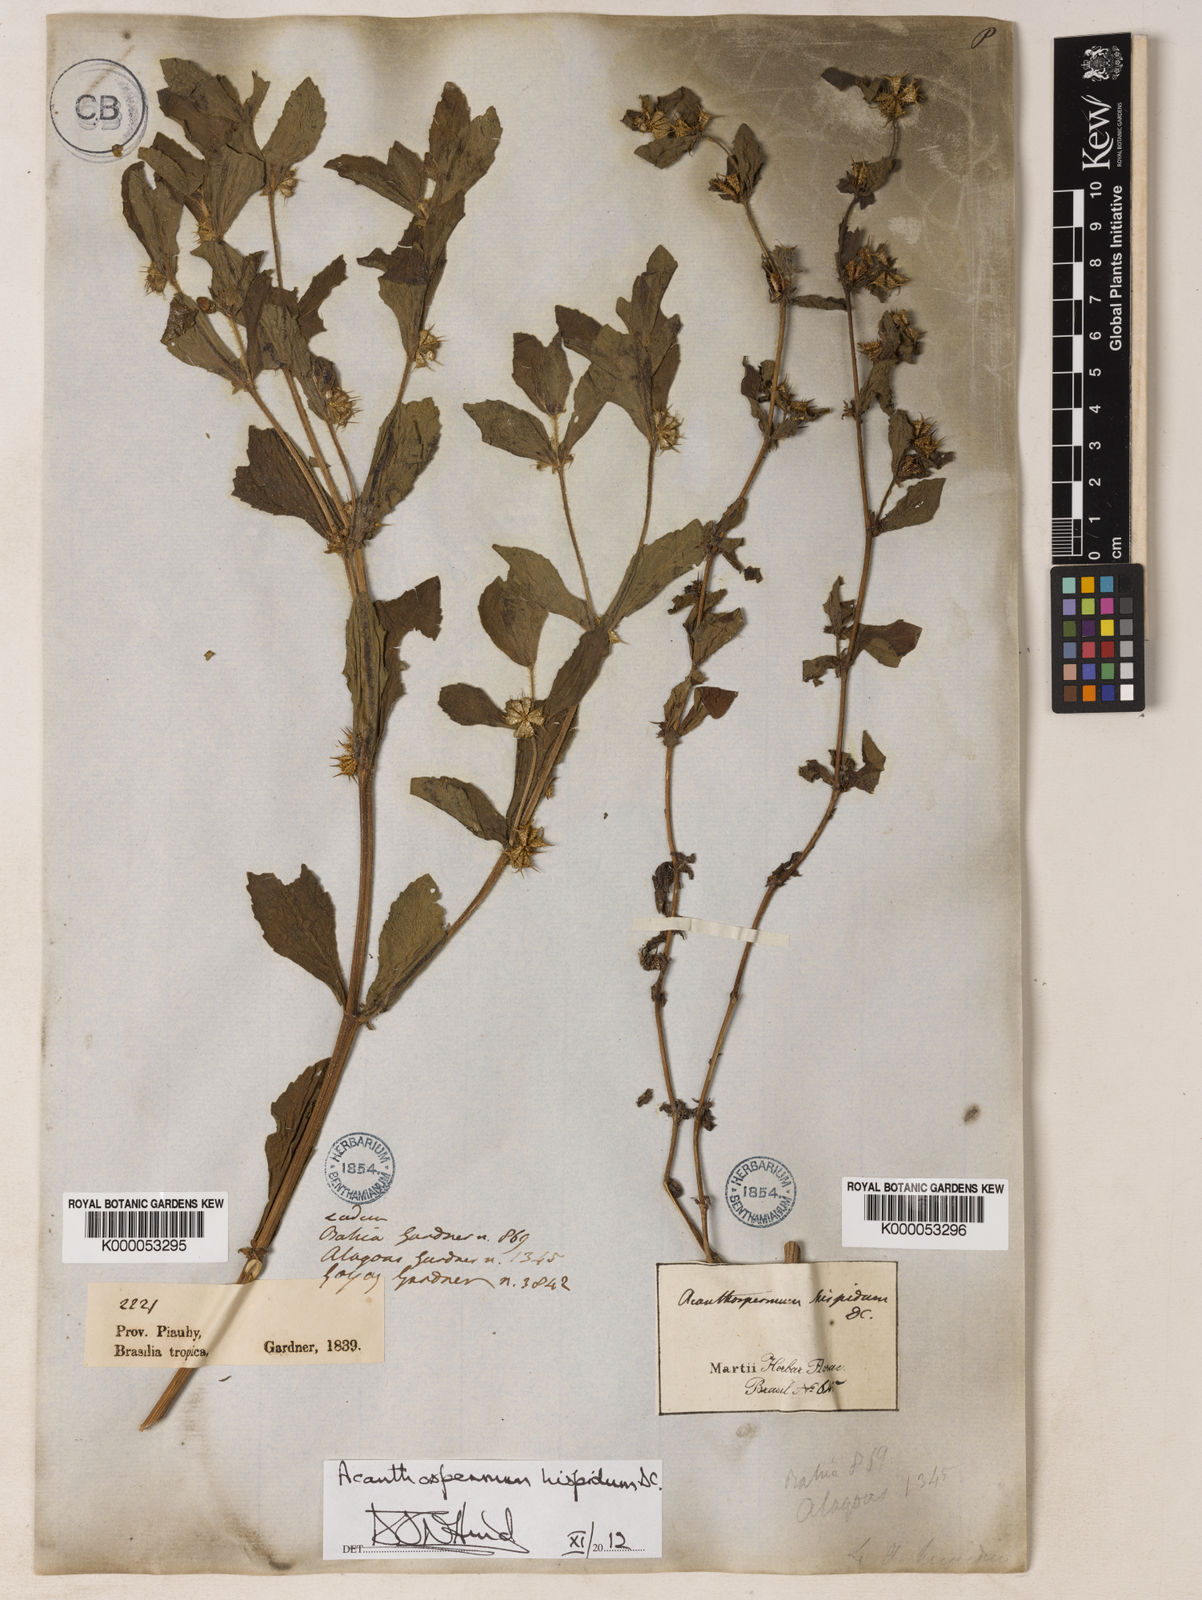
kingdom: Plantae
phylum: Tracheophyta
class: Magnoliopsida
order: Asterales
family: Asteraceae
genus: Acanthospermum
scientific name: Acanthospermum hispidum
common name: Hispid starbur
